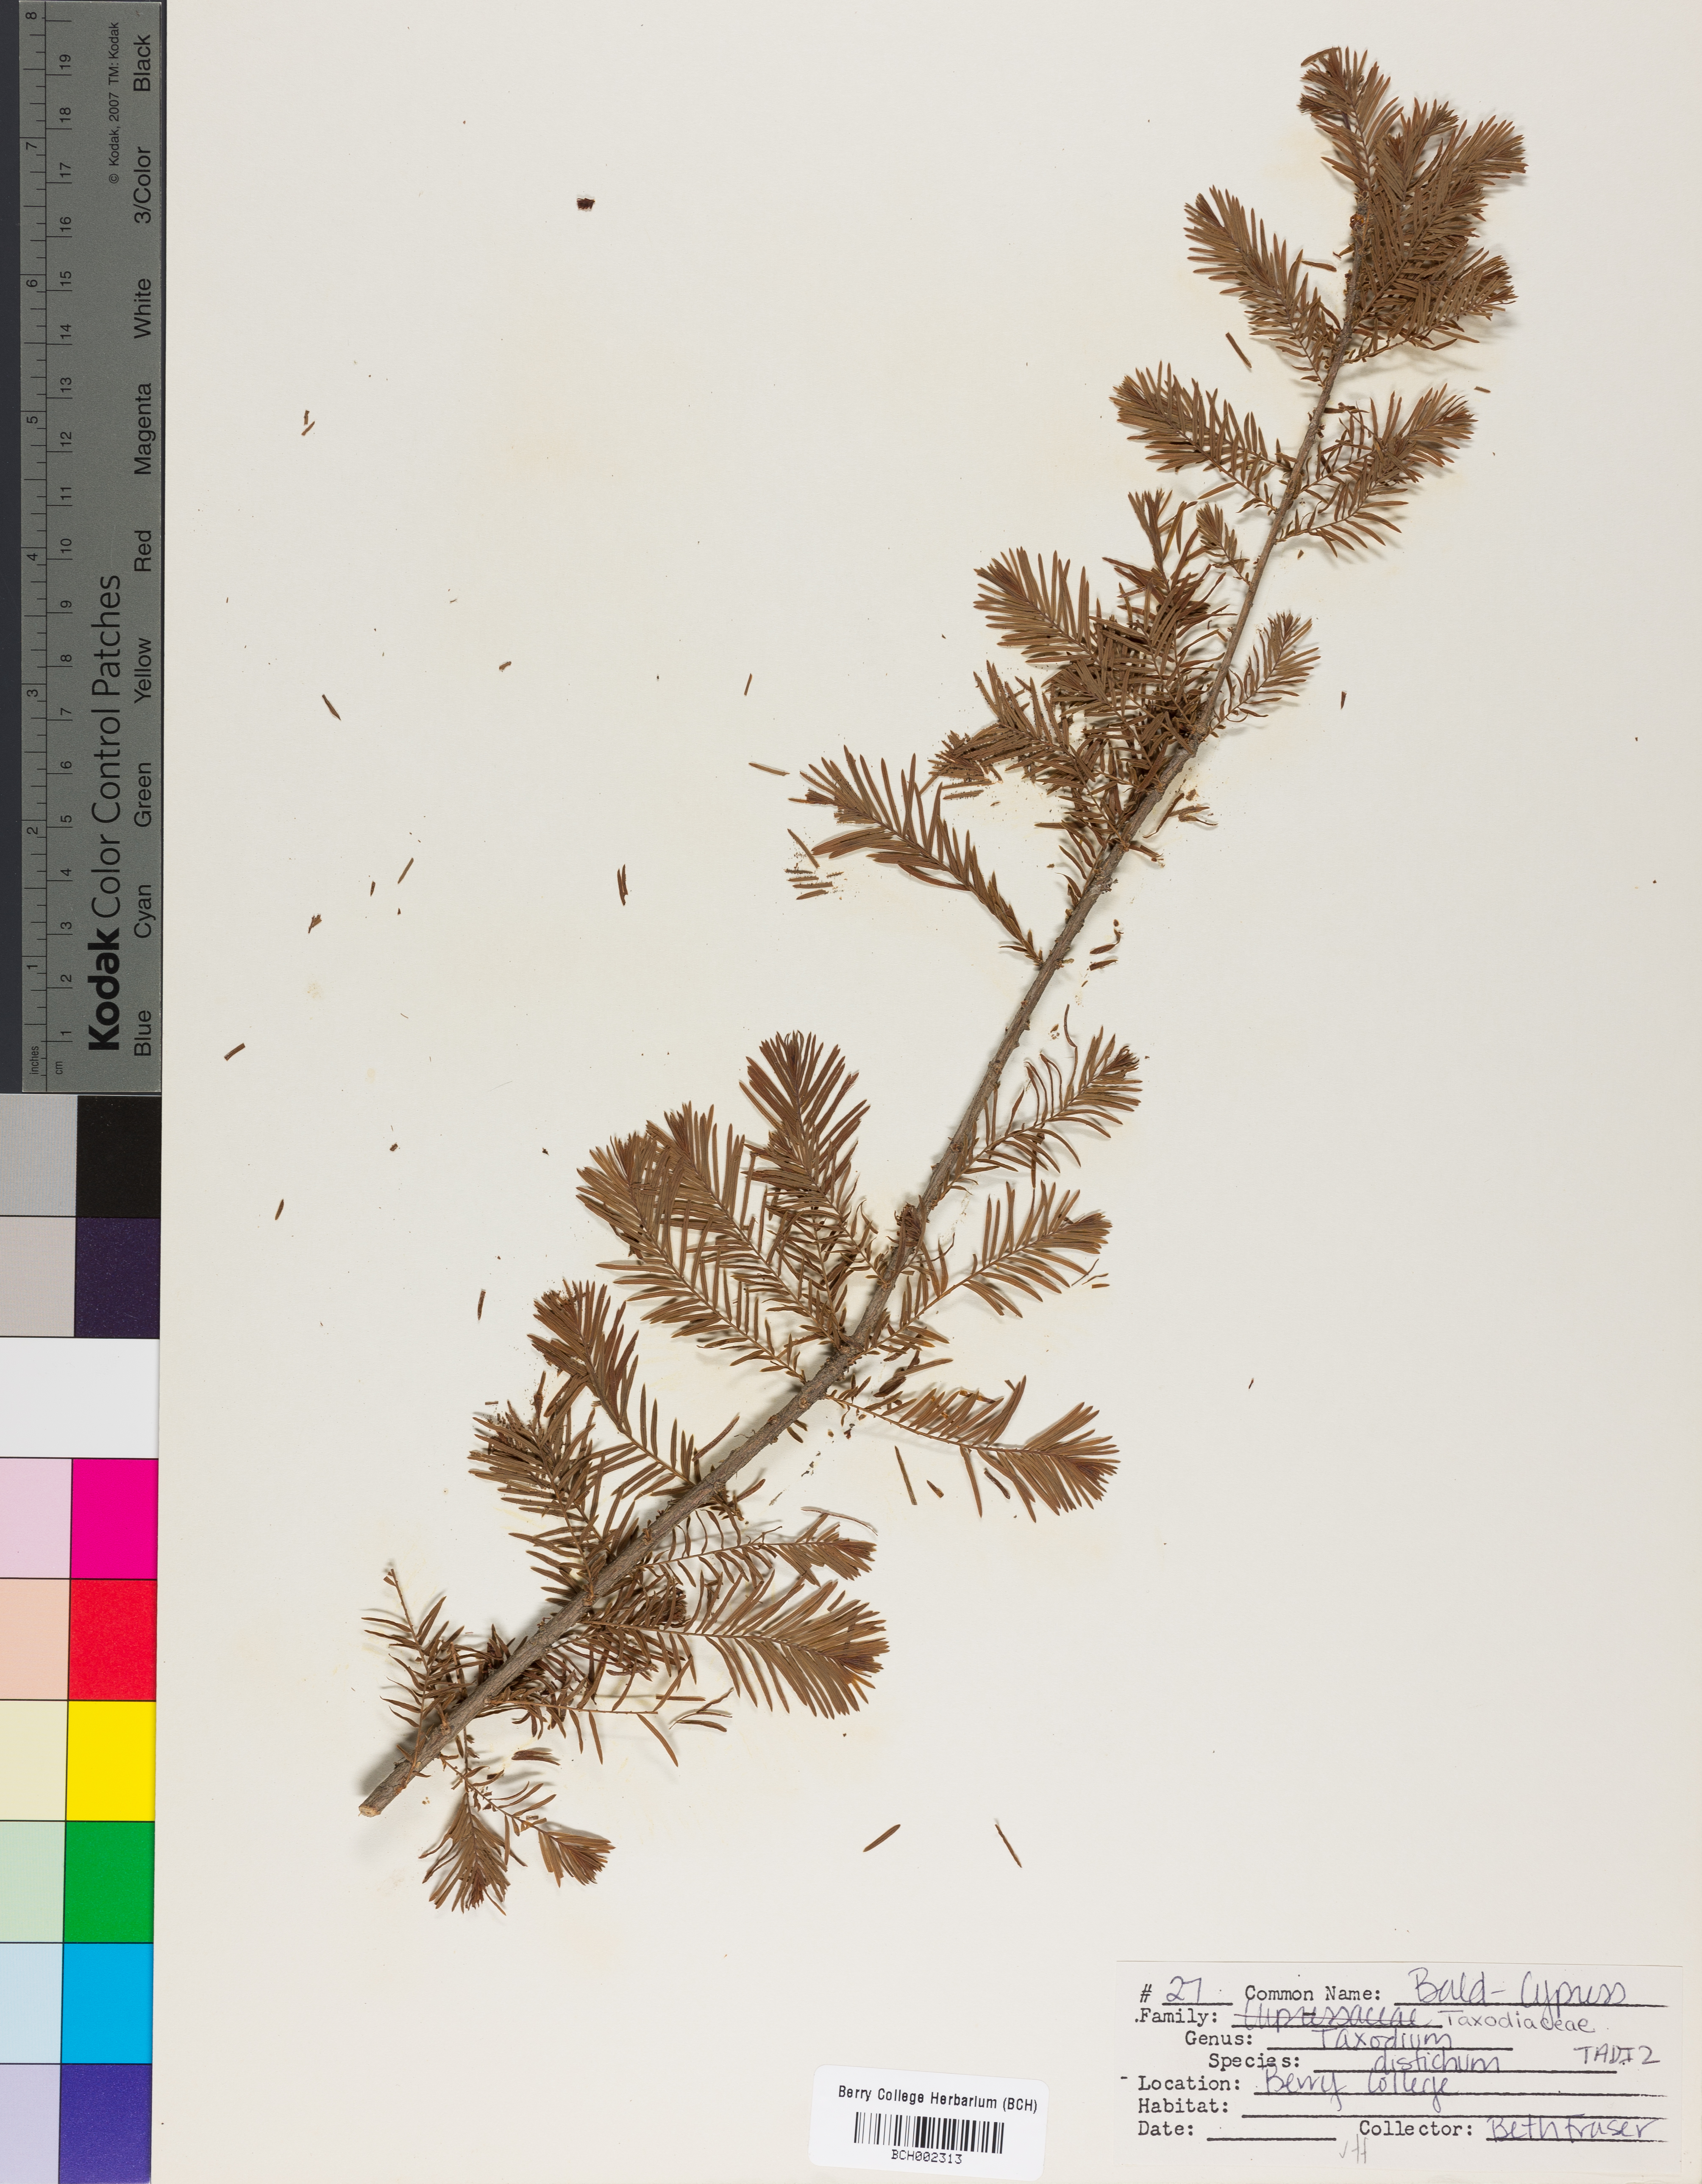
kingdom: Plantae
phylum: Tracheophyta
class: Pinopsida
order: Pinales
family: Cupressaceae
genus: Taxodium
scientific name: Taxodium distichum
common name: Bald cypress
